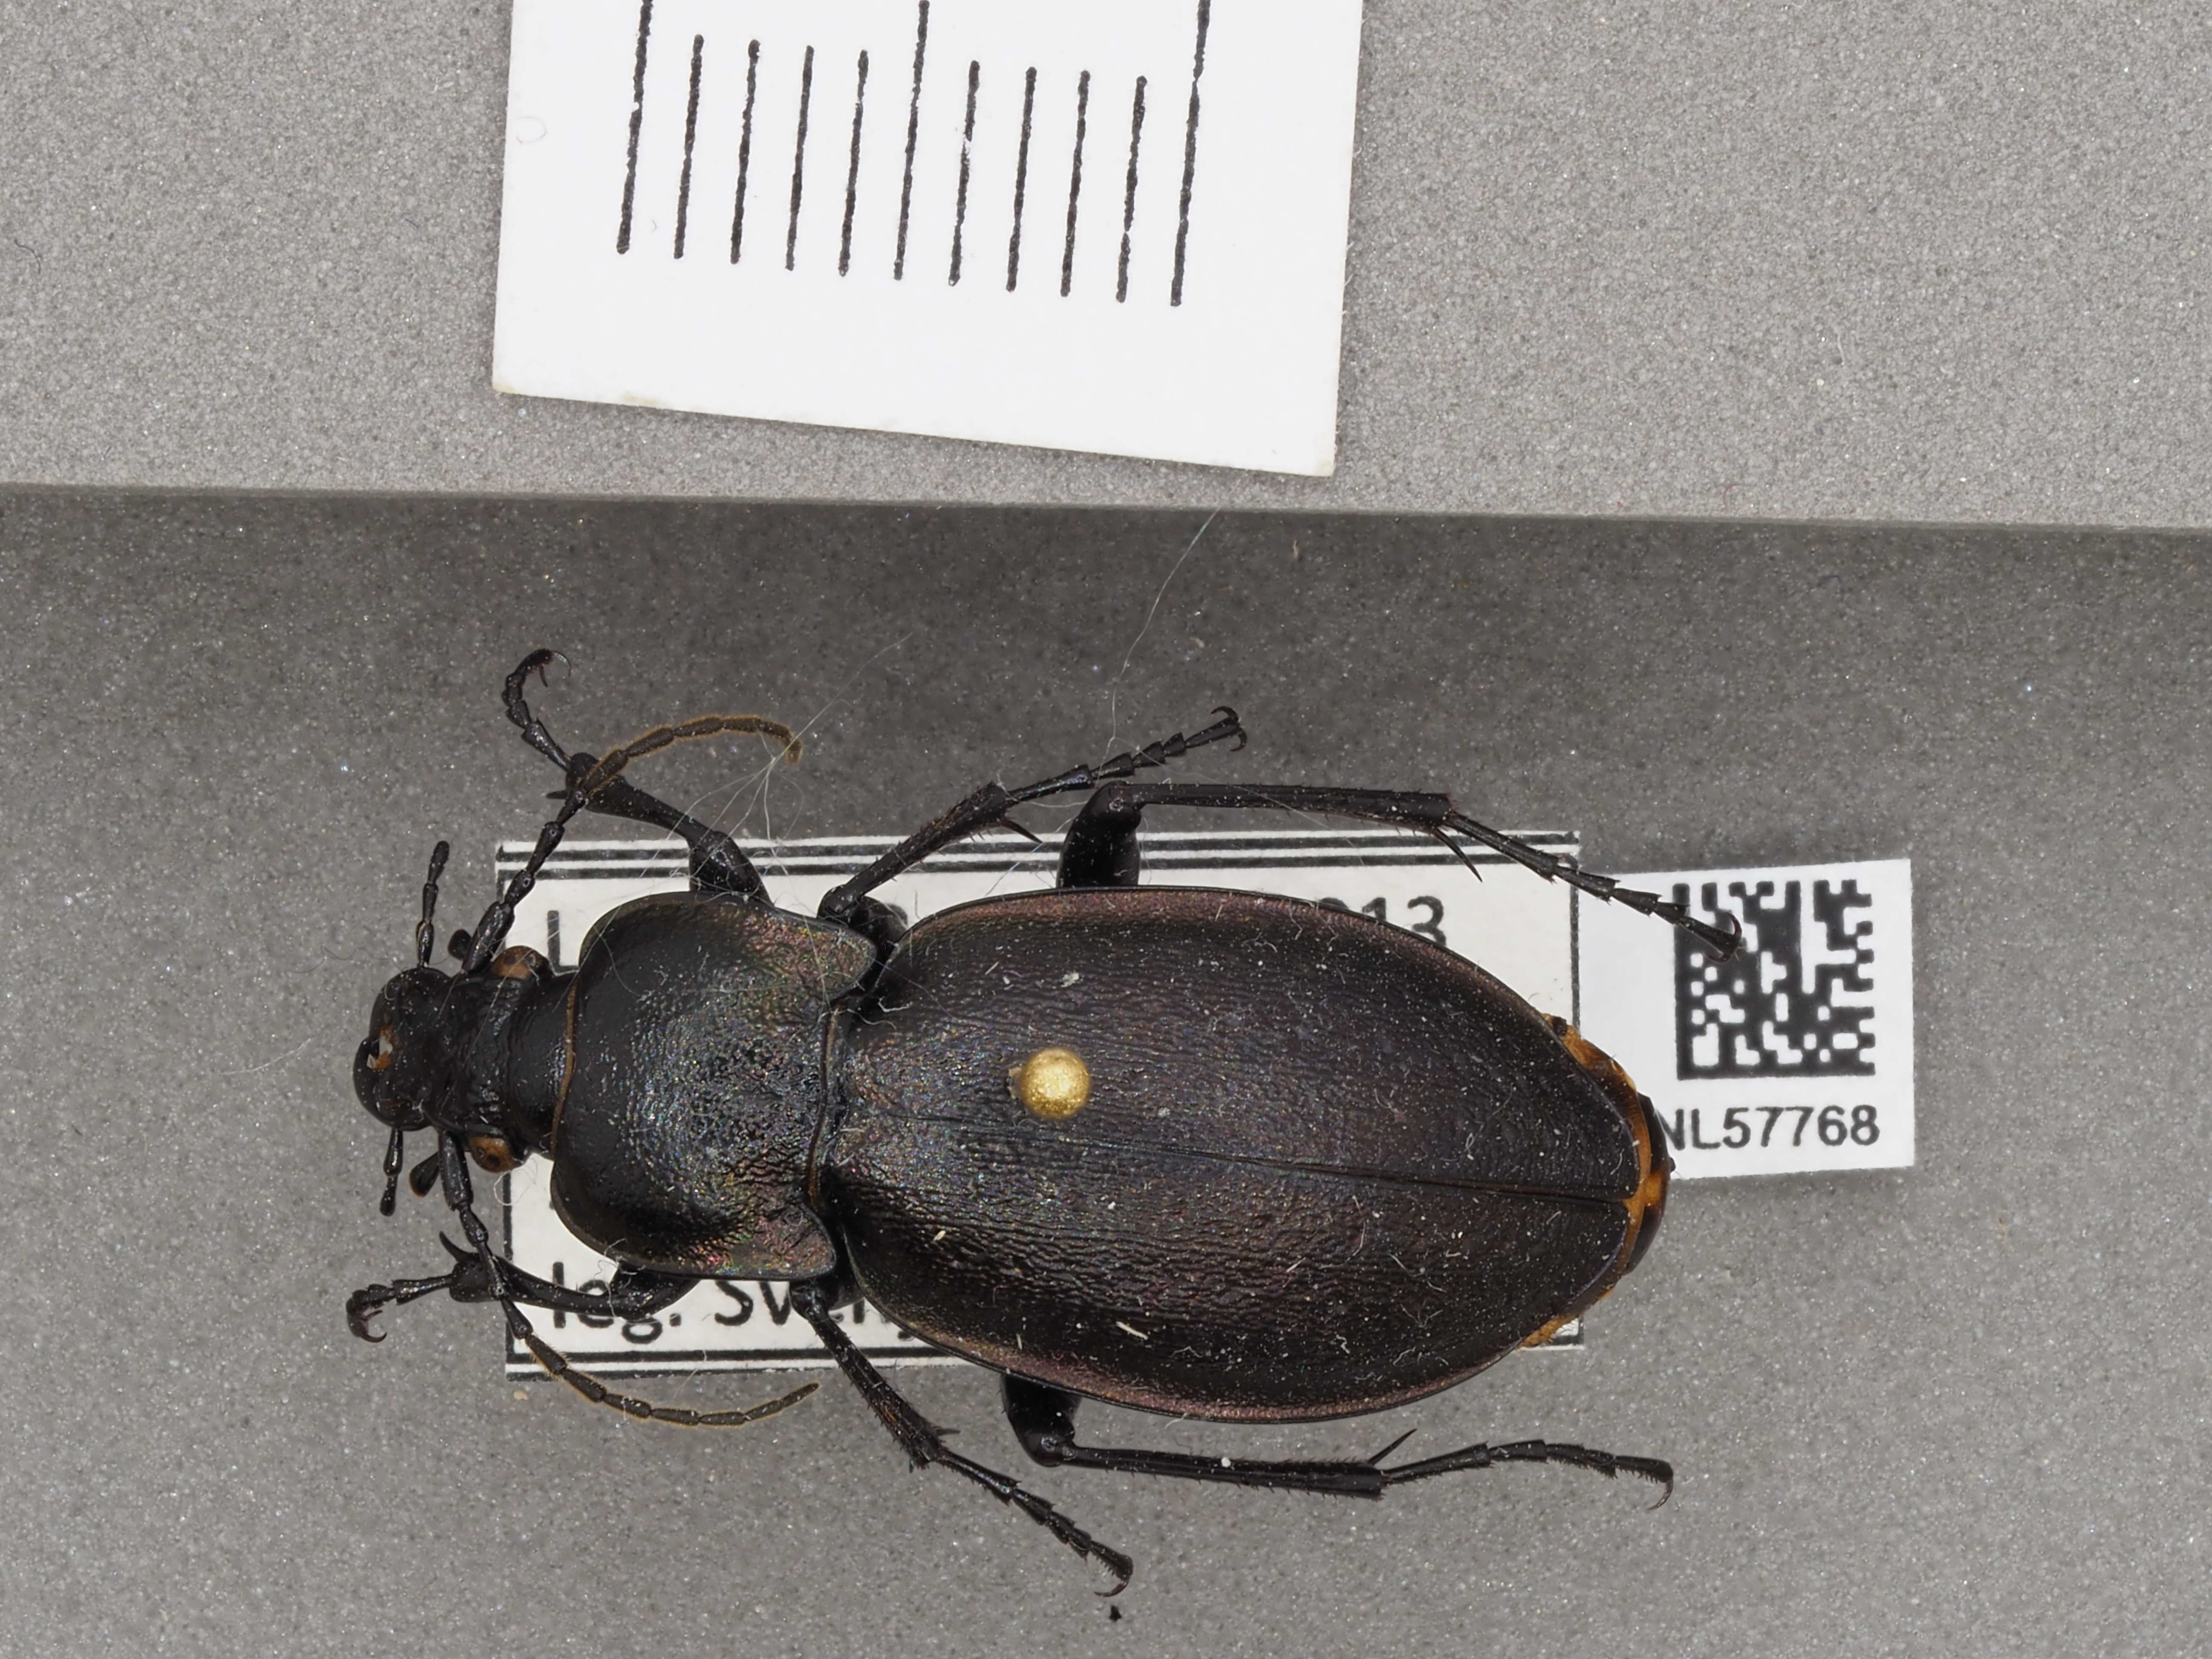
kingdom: Animalia
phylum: Arthropoda
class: Insecta
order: Coleoptera
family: Carabidae
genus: Carabus
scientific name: Carabus nemoralis
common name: European ground beetle
